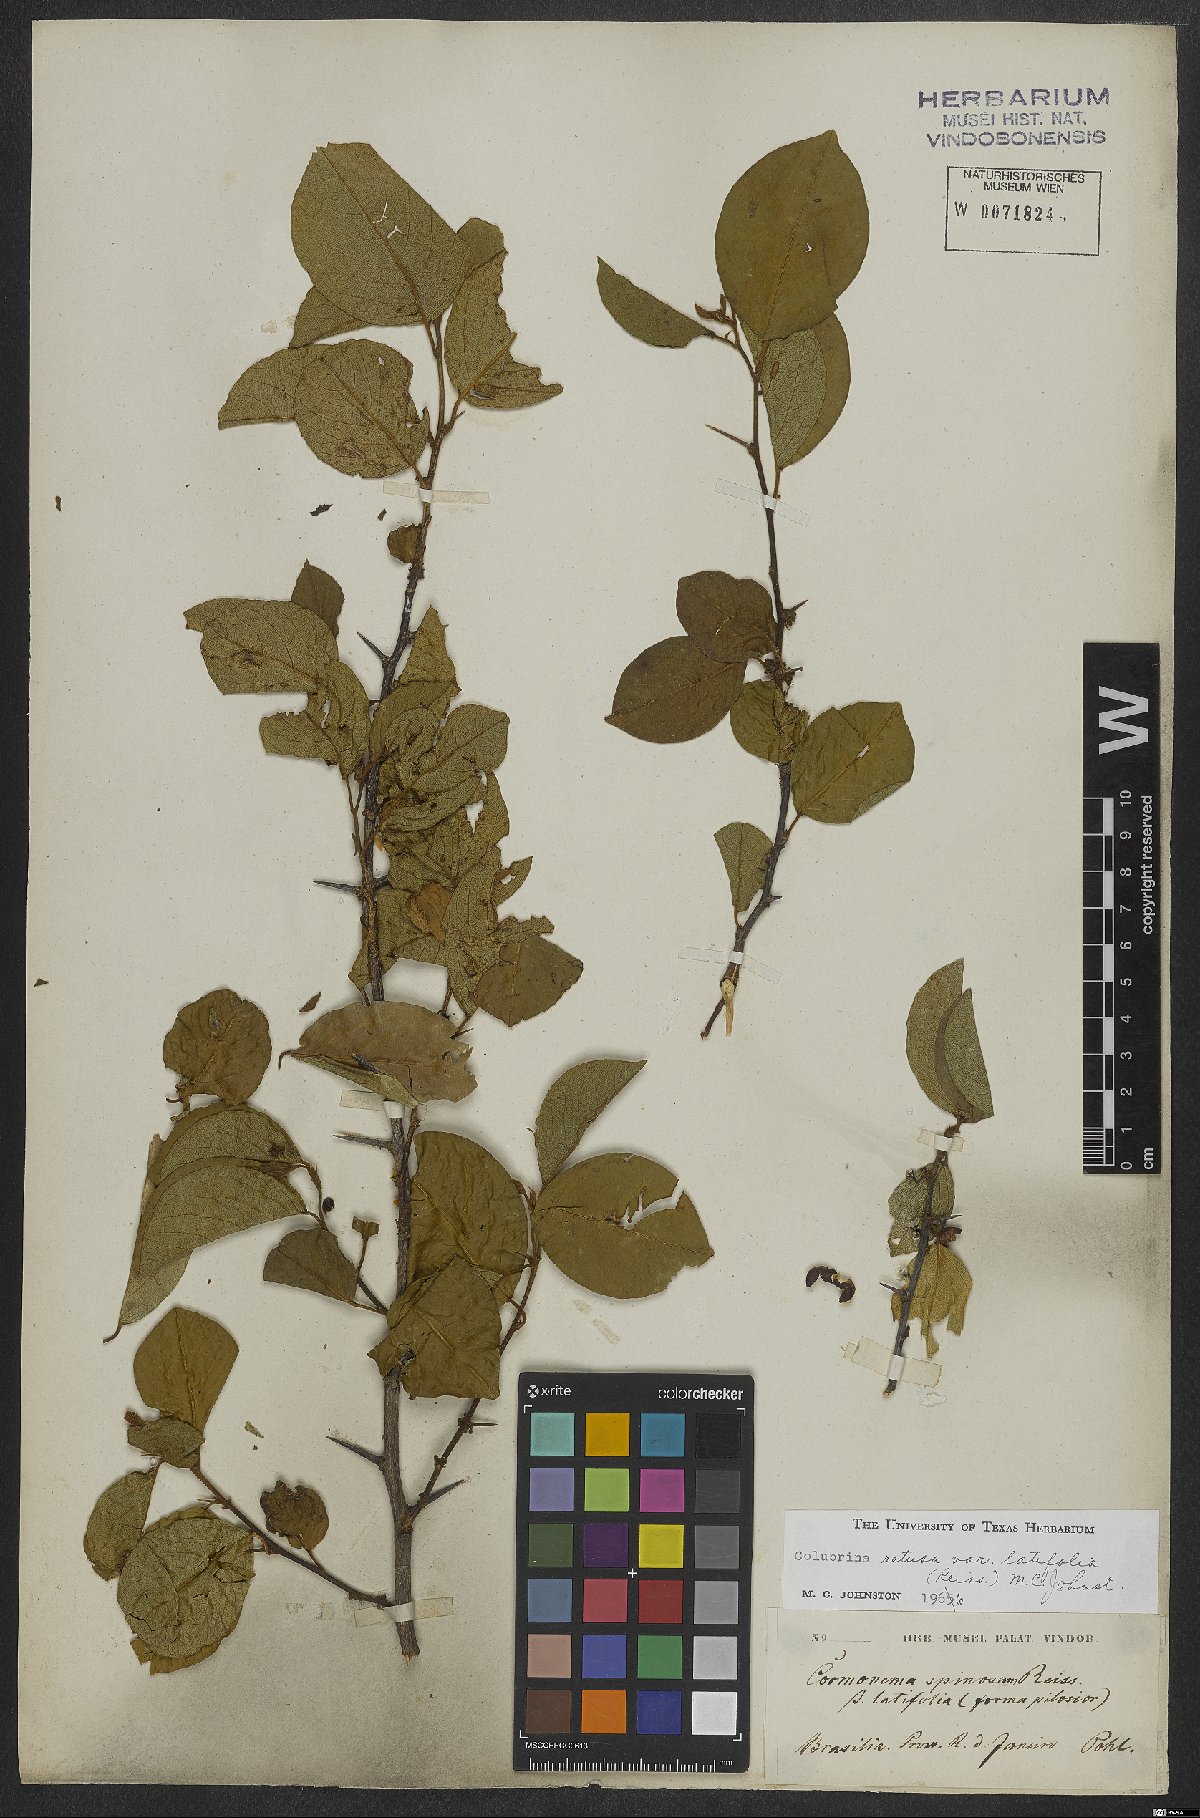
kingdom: Plantae
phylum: Tracheophyta
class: Magnoliopsida
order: Rosales
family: Rhamnaceae
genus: Colubrina
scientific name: Colubrina retusa
